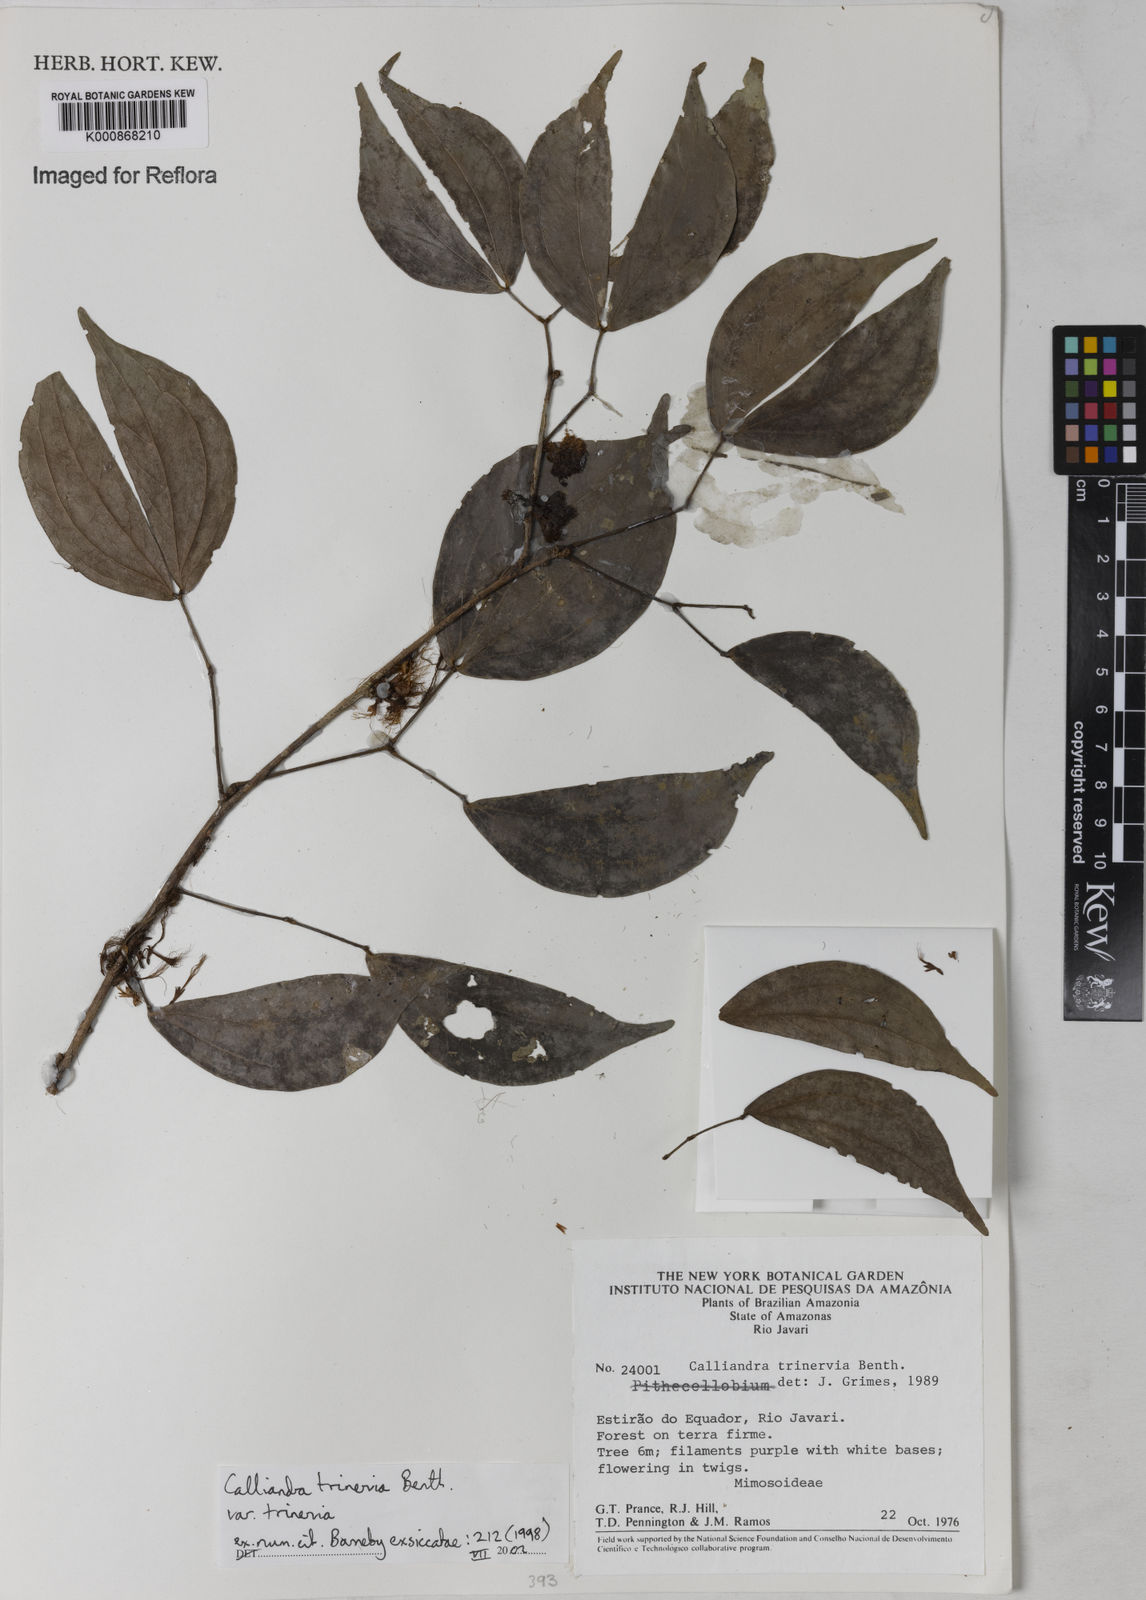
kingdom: Plantae
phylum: Tracheophyta
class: Magnoliopsida
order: Fabales
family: Fabaceae
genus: Calliandra
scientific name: Calliandra trinervia
